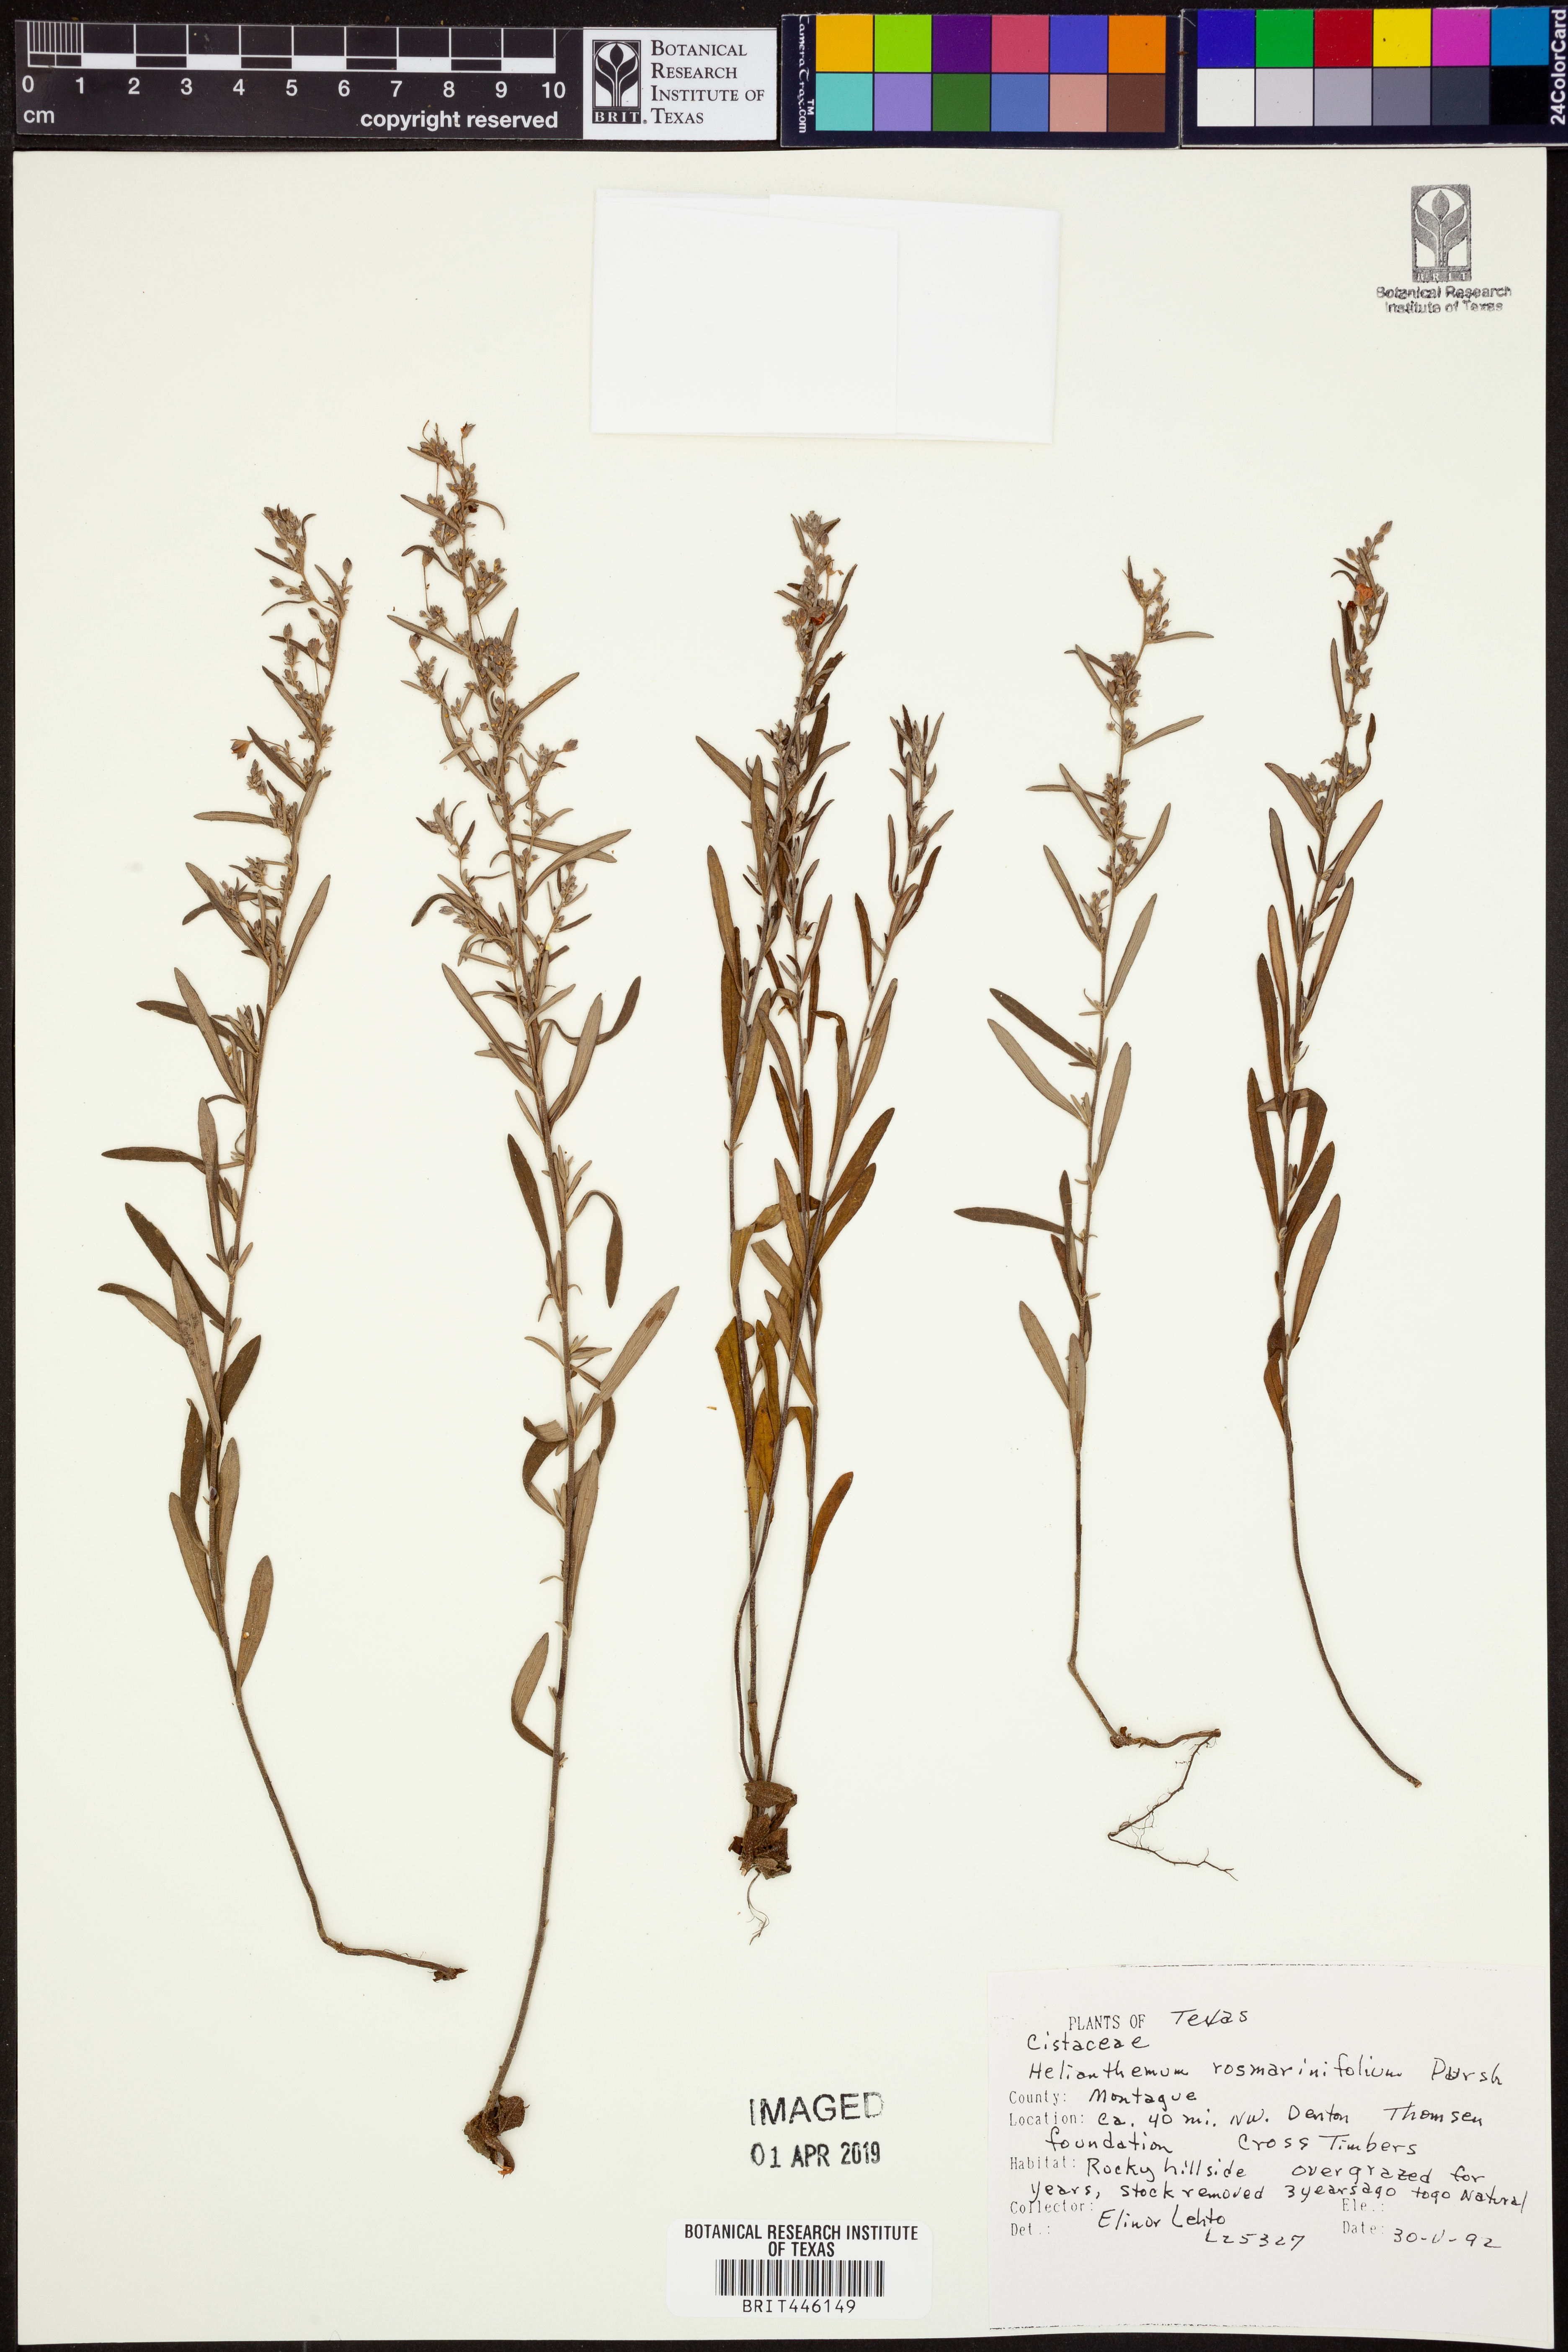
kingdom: Plantae
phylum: Tracheophyta
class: Magnoliopsida
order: Malvales
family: Cistaceae
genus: Crocanthemum
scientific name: Crocanthemum rosmarinifolium
